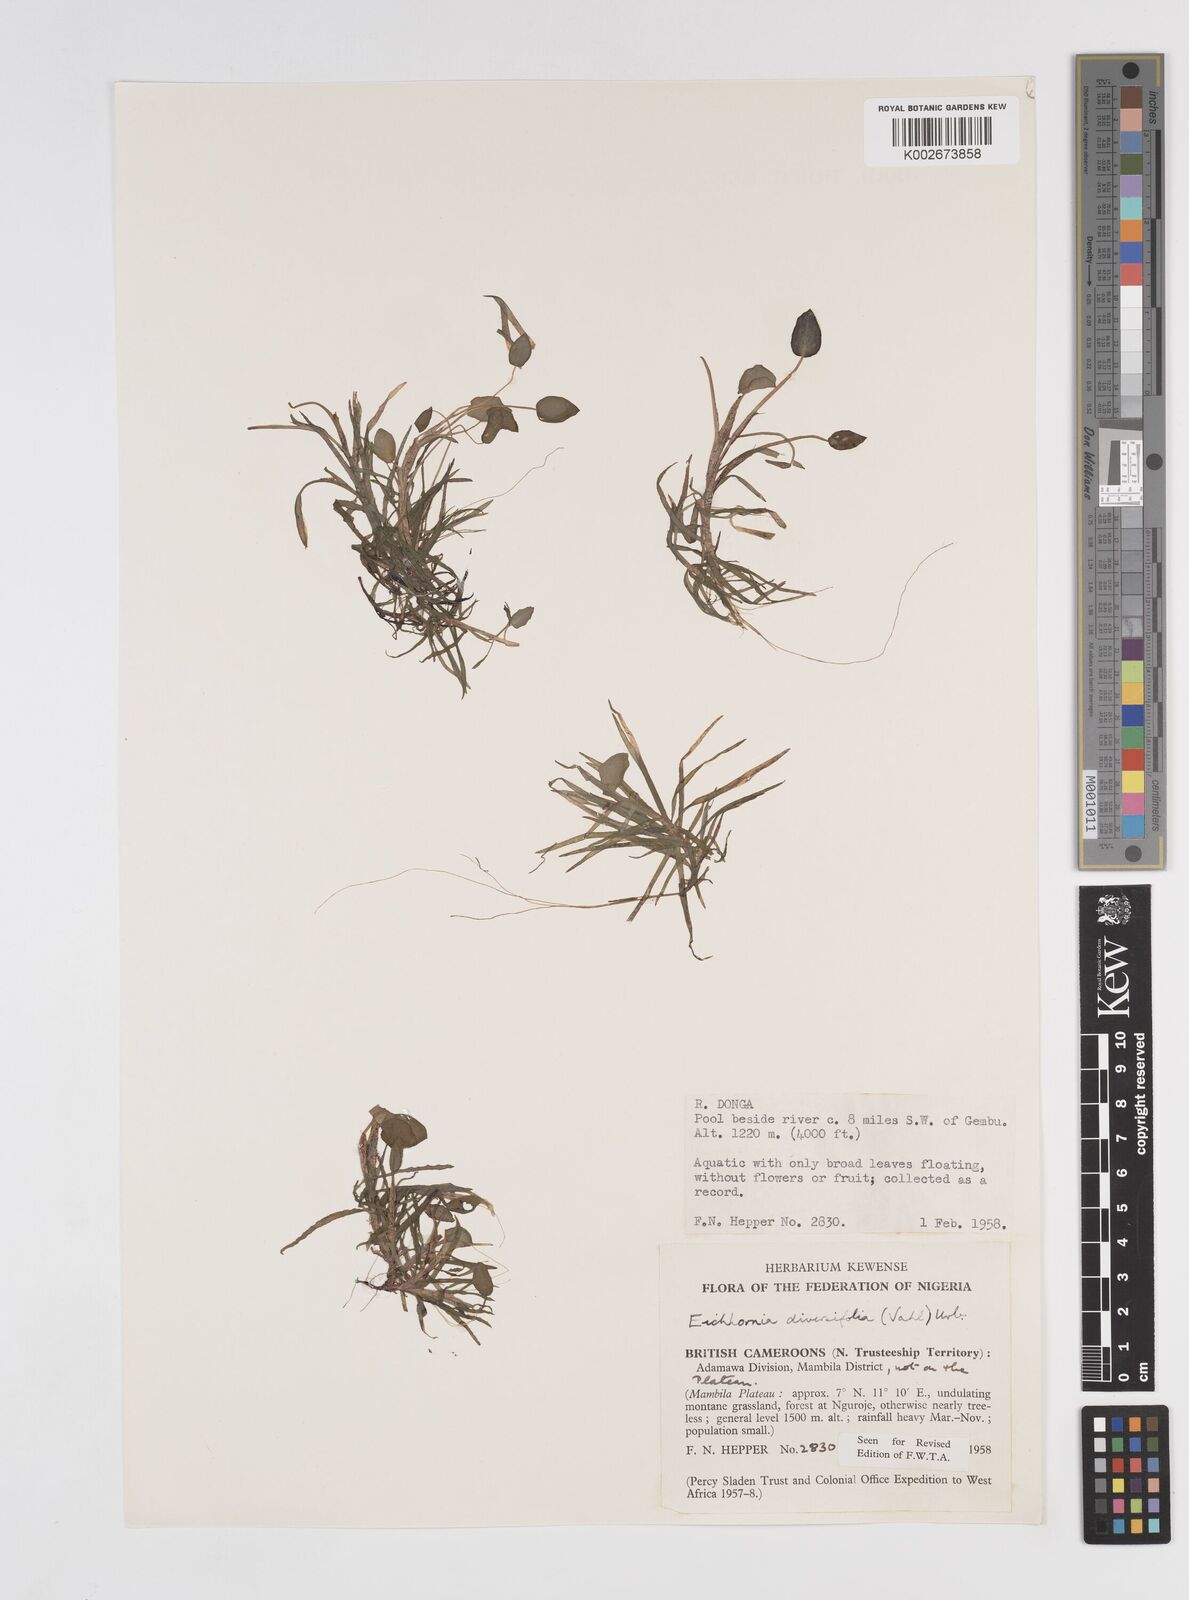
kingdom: Plantae
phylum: Tracheophyta
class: Liliopsida
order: Commelinales
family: Pontederiaceae
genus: Pontederia
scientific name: Pontederia diversifolia
